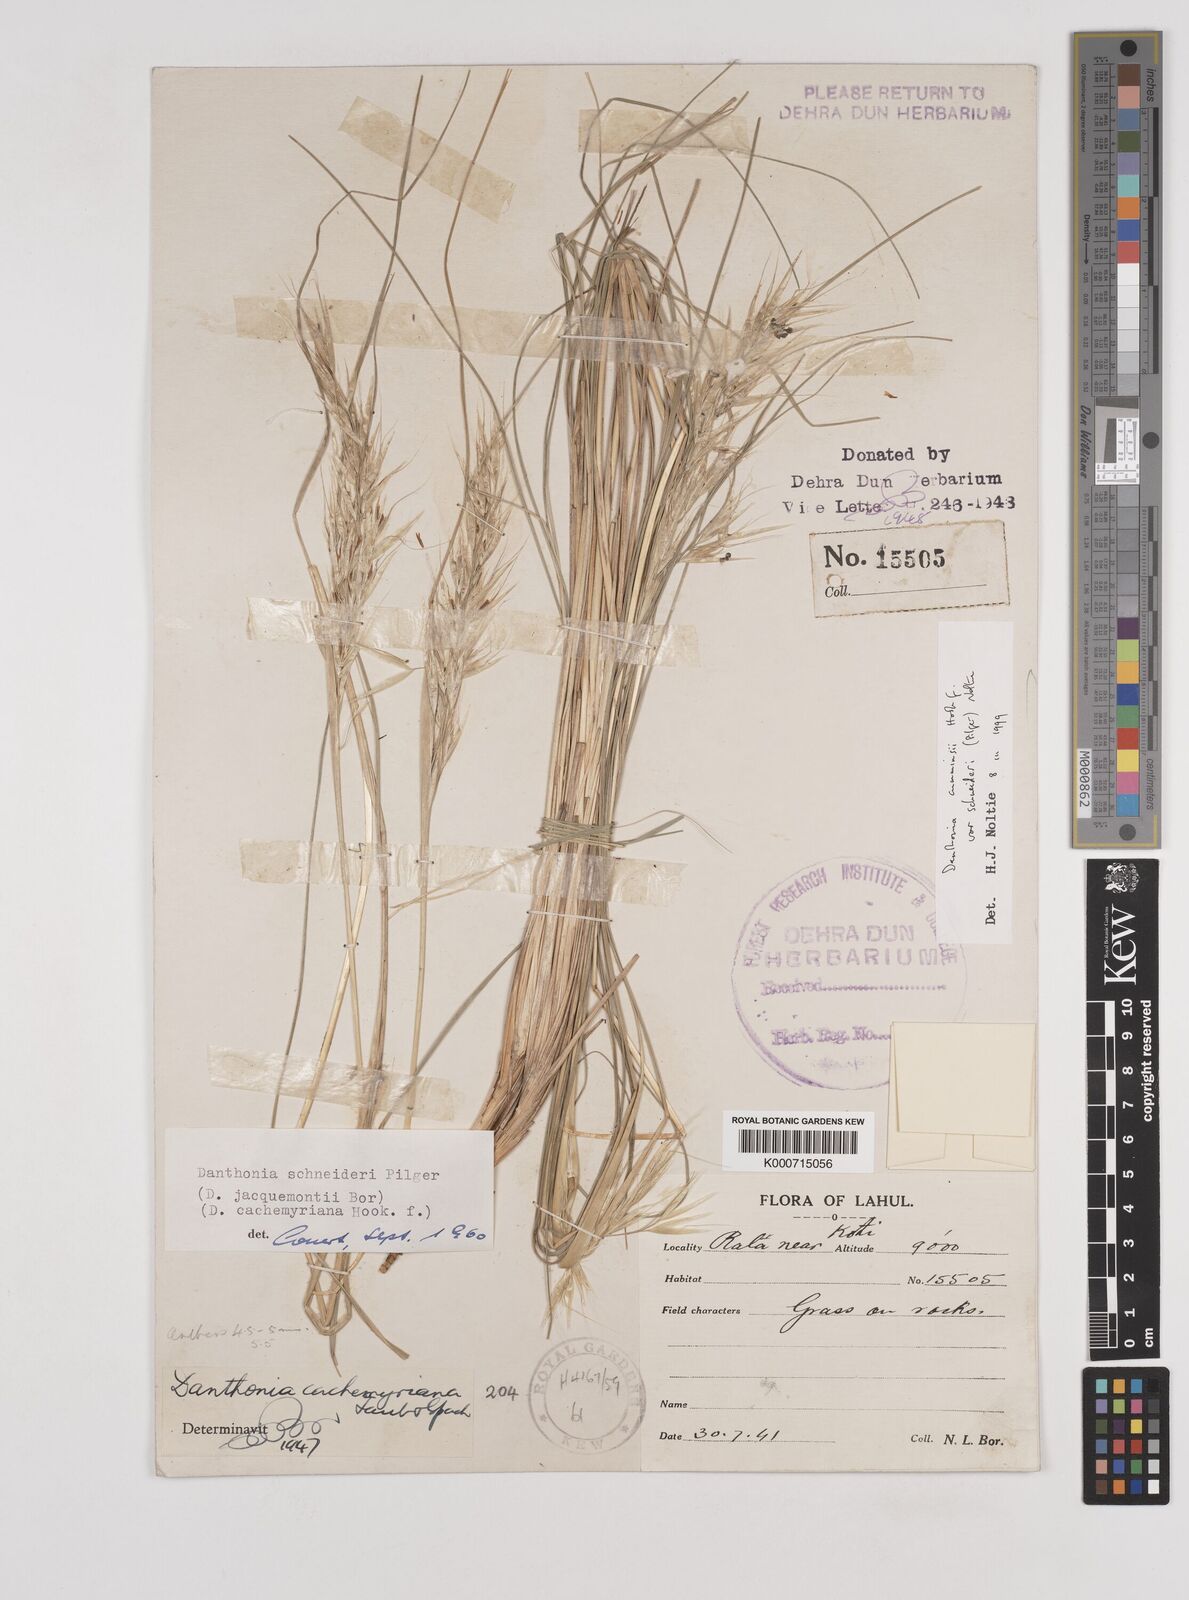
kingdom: Plantae
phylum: Tracheophyta
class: Liliopsida
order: Poales
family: Poaceae
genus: Rytidosperma
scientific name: Rytidosperma
